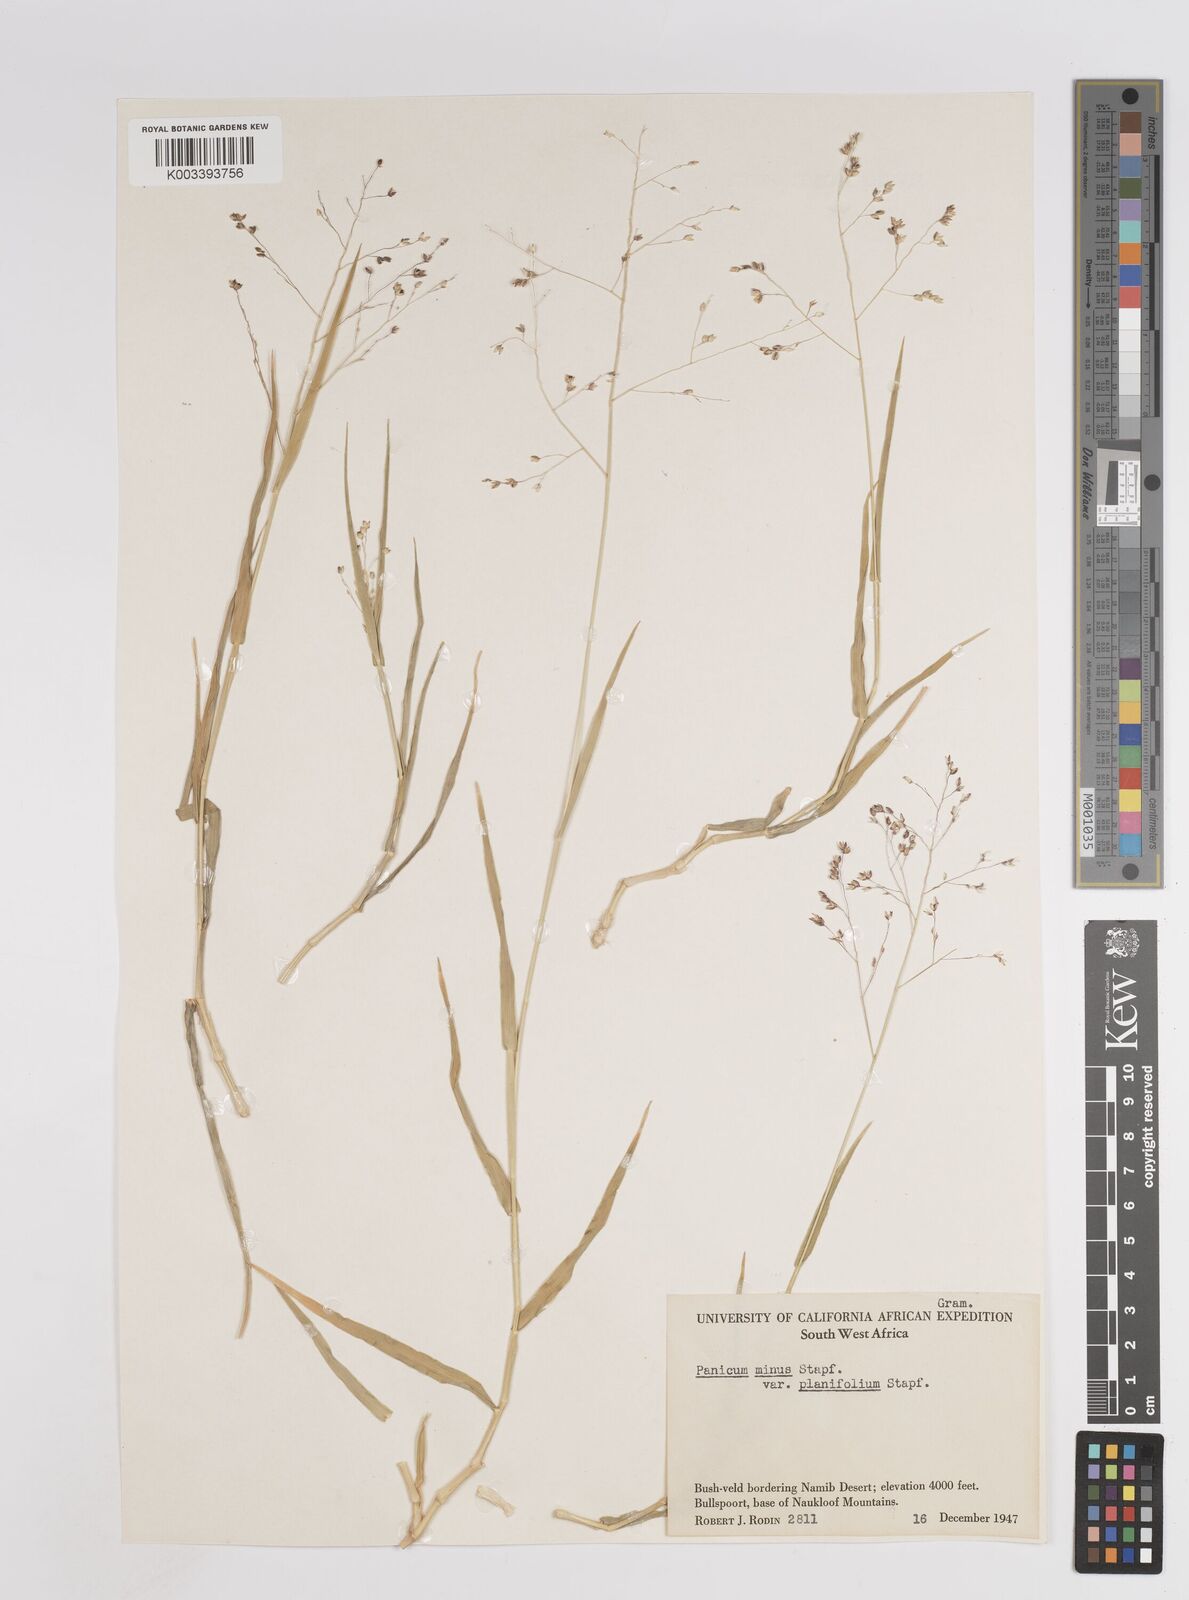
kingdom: Plantae
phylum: Tracheophyta
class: Liliopsida
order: Poales
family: Poaceae
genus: Panicum
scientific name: Panicum arbusculum
